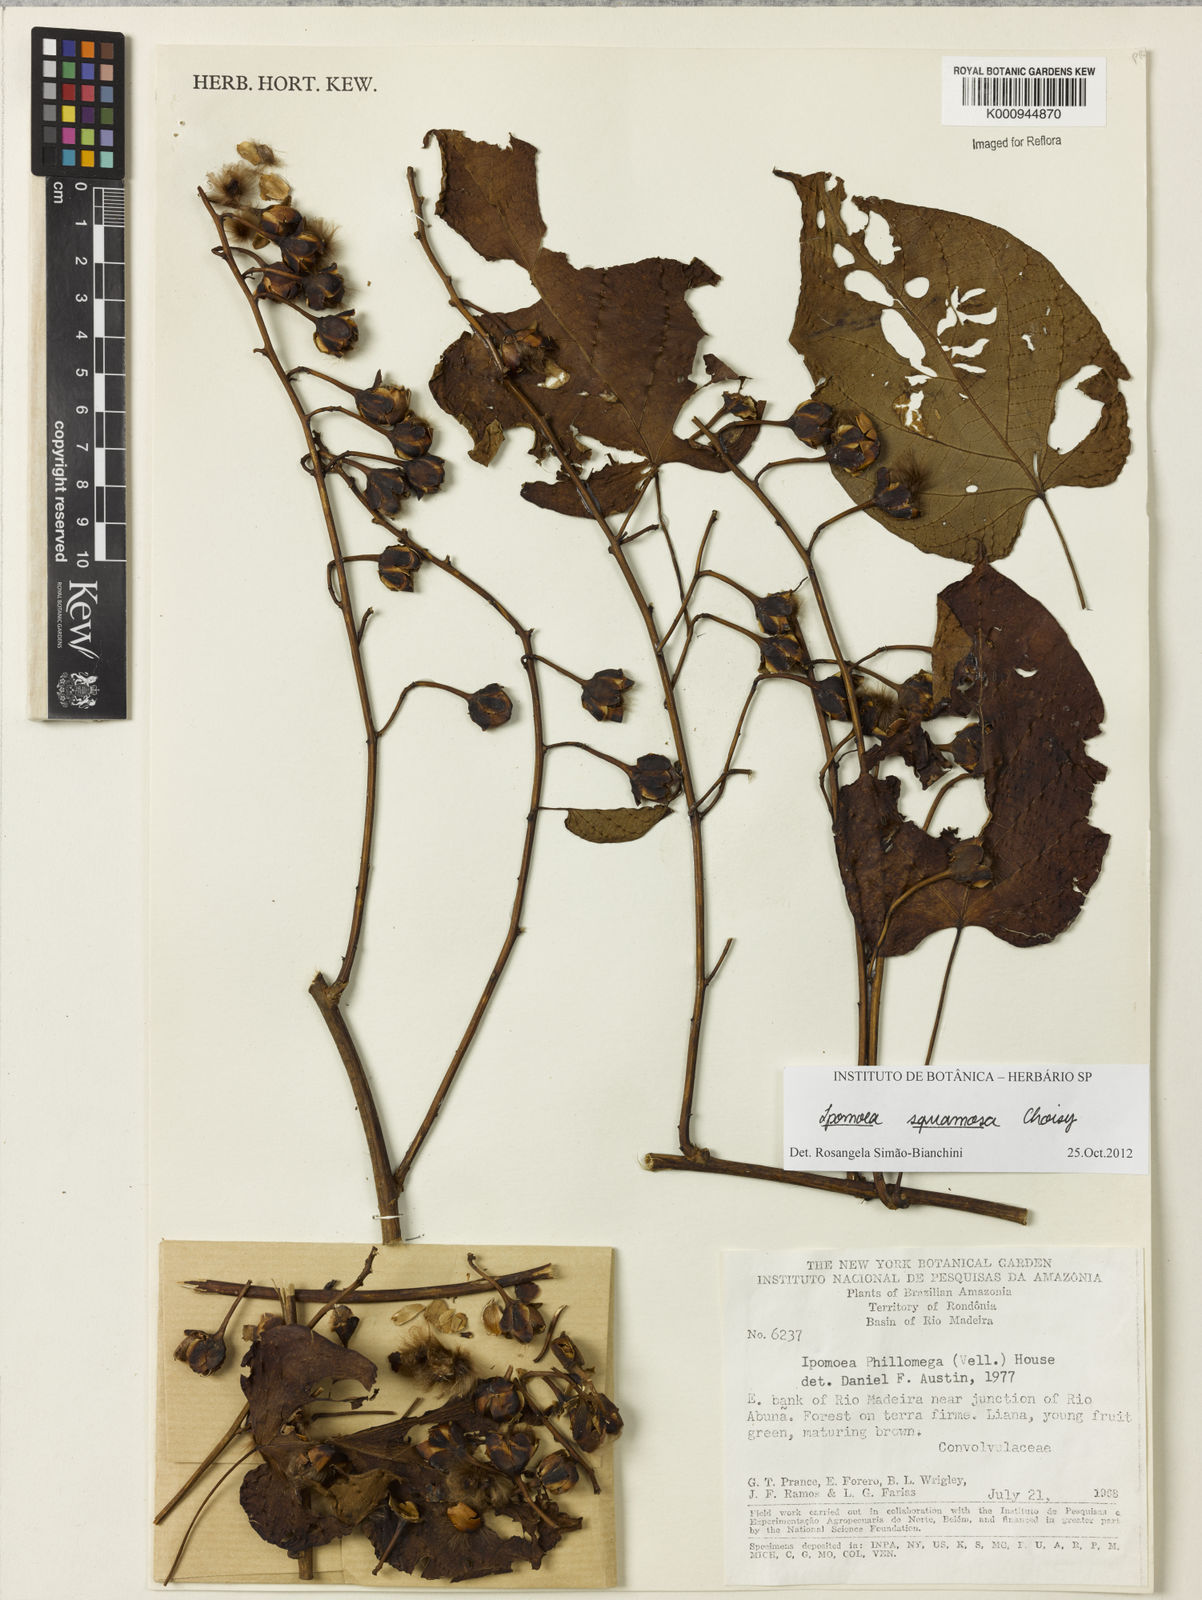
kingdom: Plantae
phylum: Tracheophyta
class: Magnoliopsida
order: Solanales
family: Convolvulaceae
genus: Ipomoea
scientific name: Ipomoea squamosa
